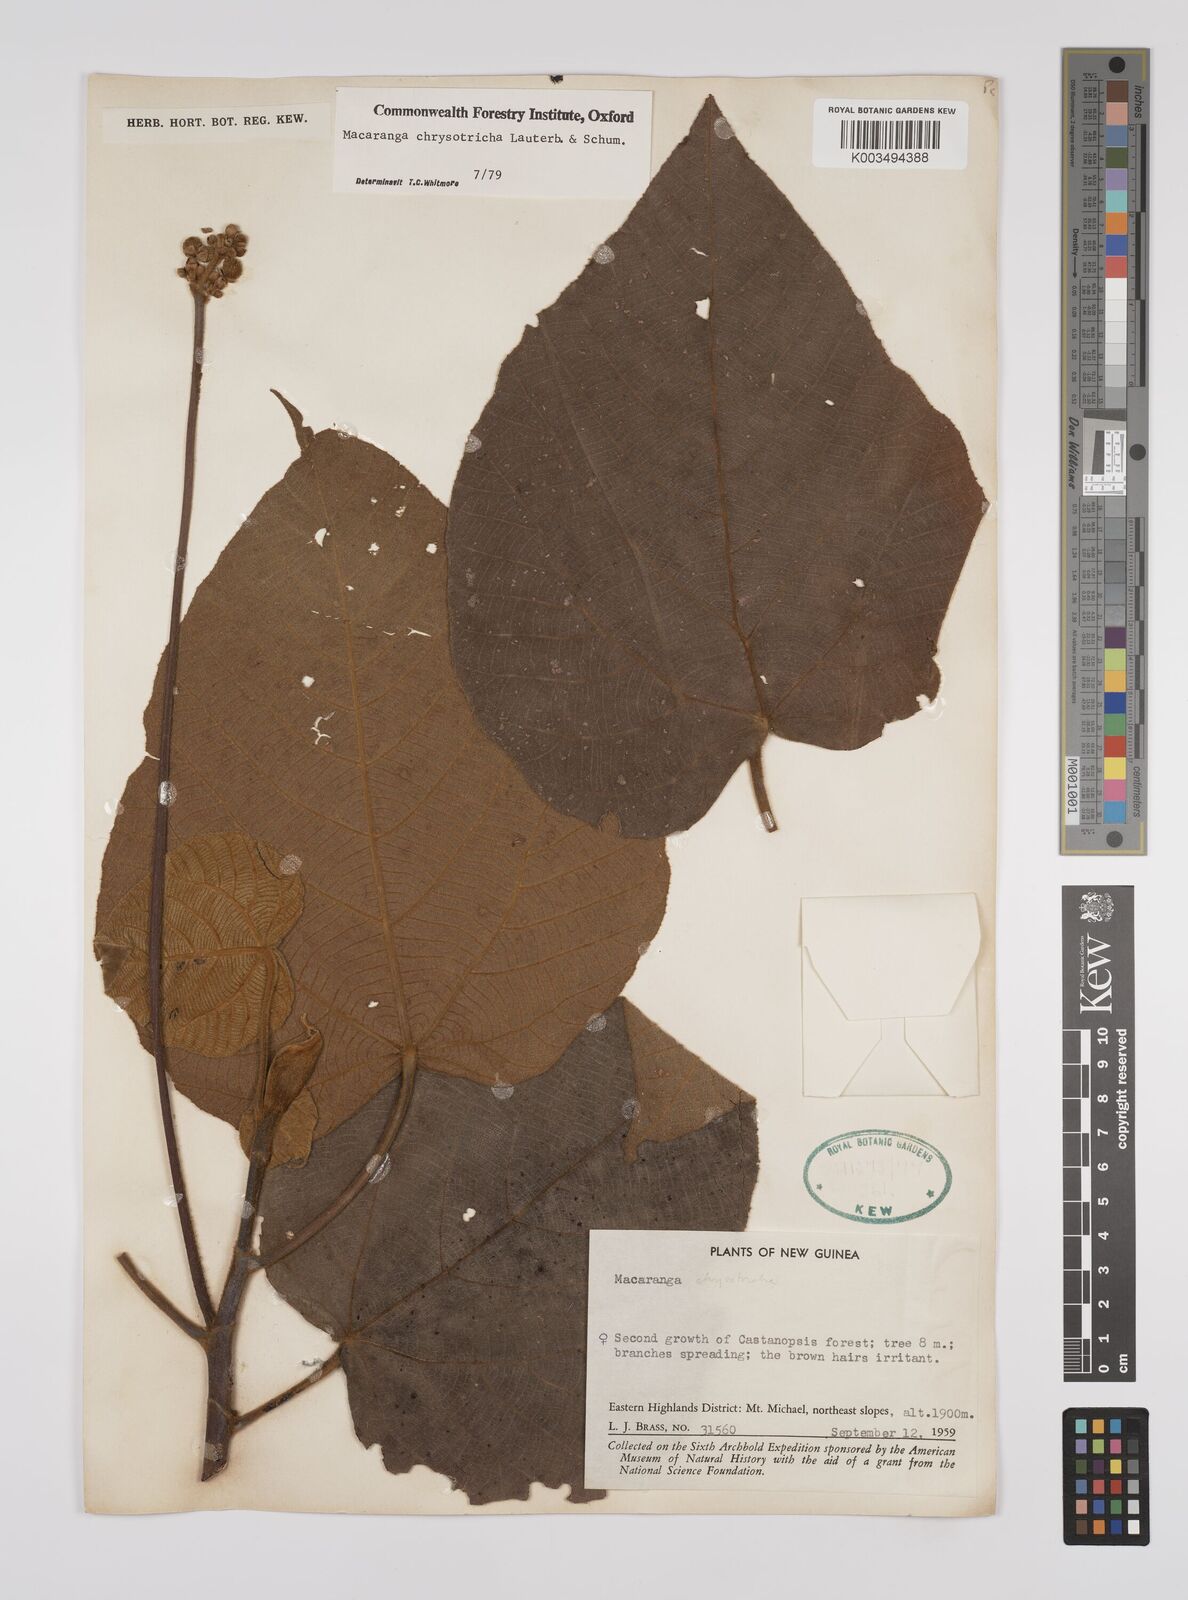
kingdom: Plantae
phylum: Tracheophyta
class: Magnoliopsida
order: Malpighiales
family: Euphorbiaceae
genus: Macaranga
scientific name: Macaranga chrysotricha
